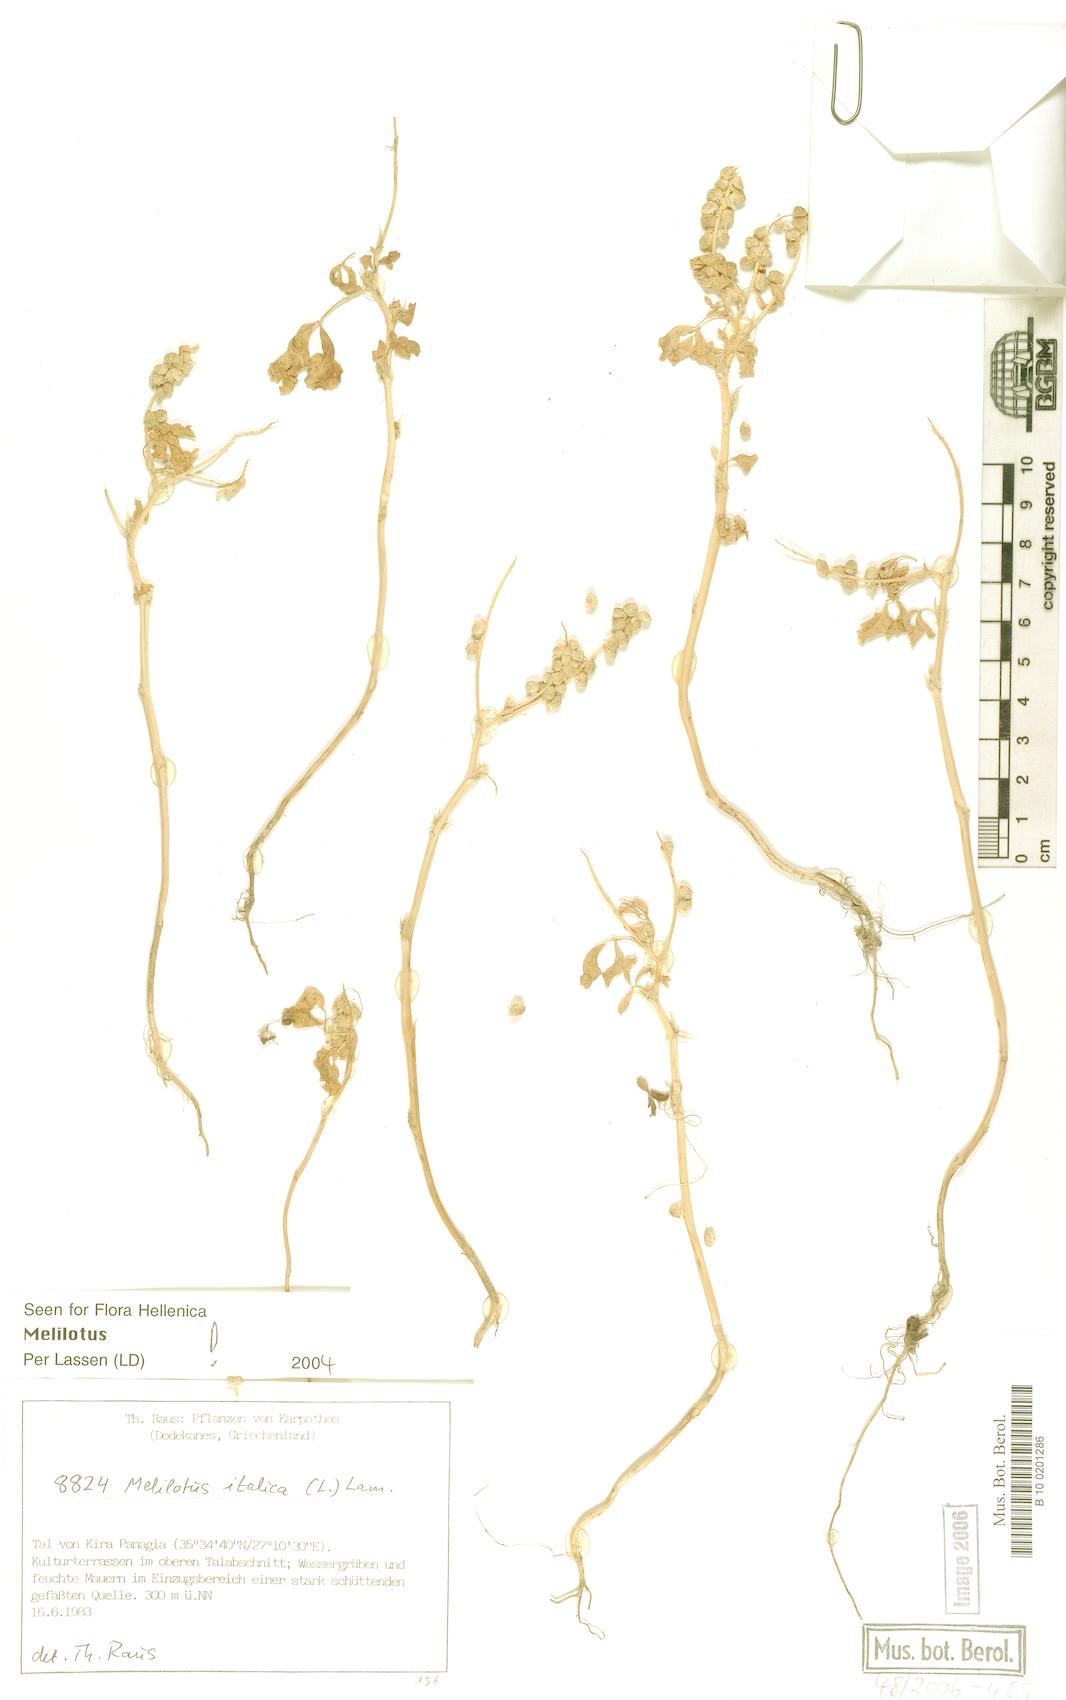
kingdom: Plantae
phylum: Tracheophyta
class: Magnoliopsida
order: Fabales
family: Fabaceae
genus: Melilotus
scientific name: Melilotus italicus
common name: Italian melilot
